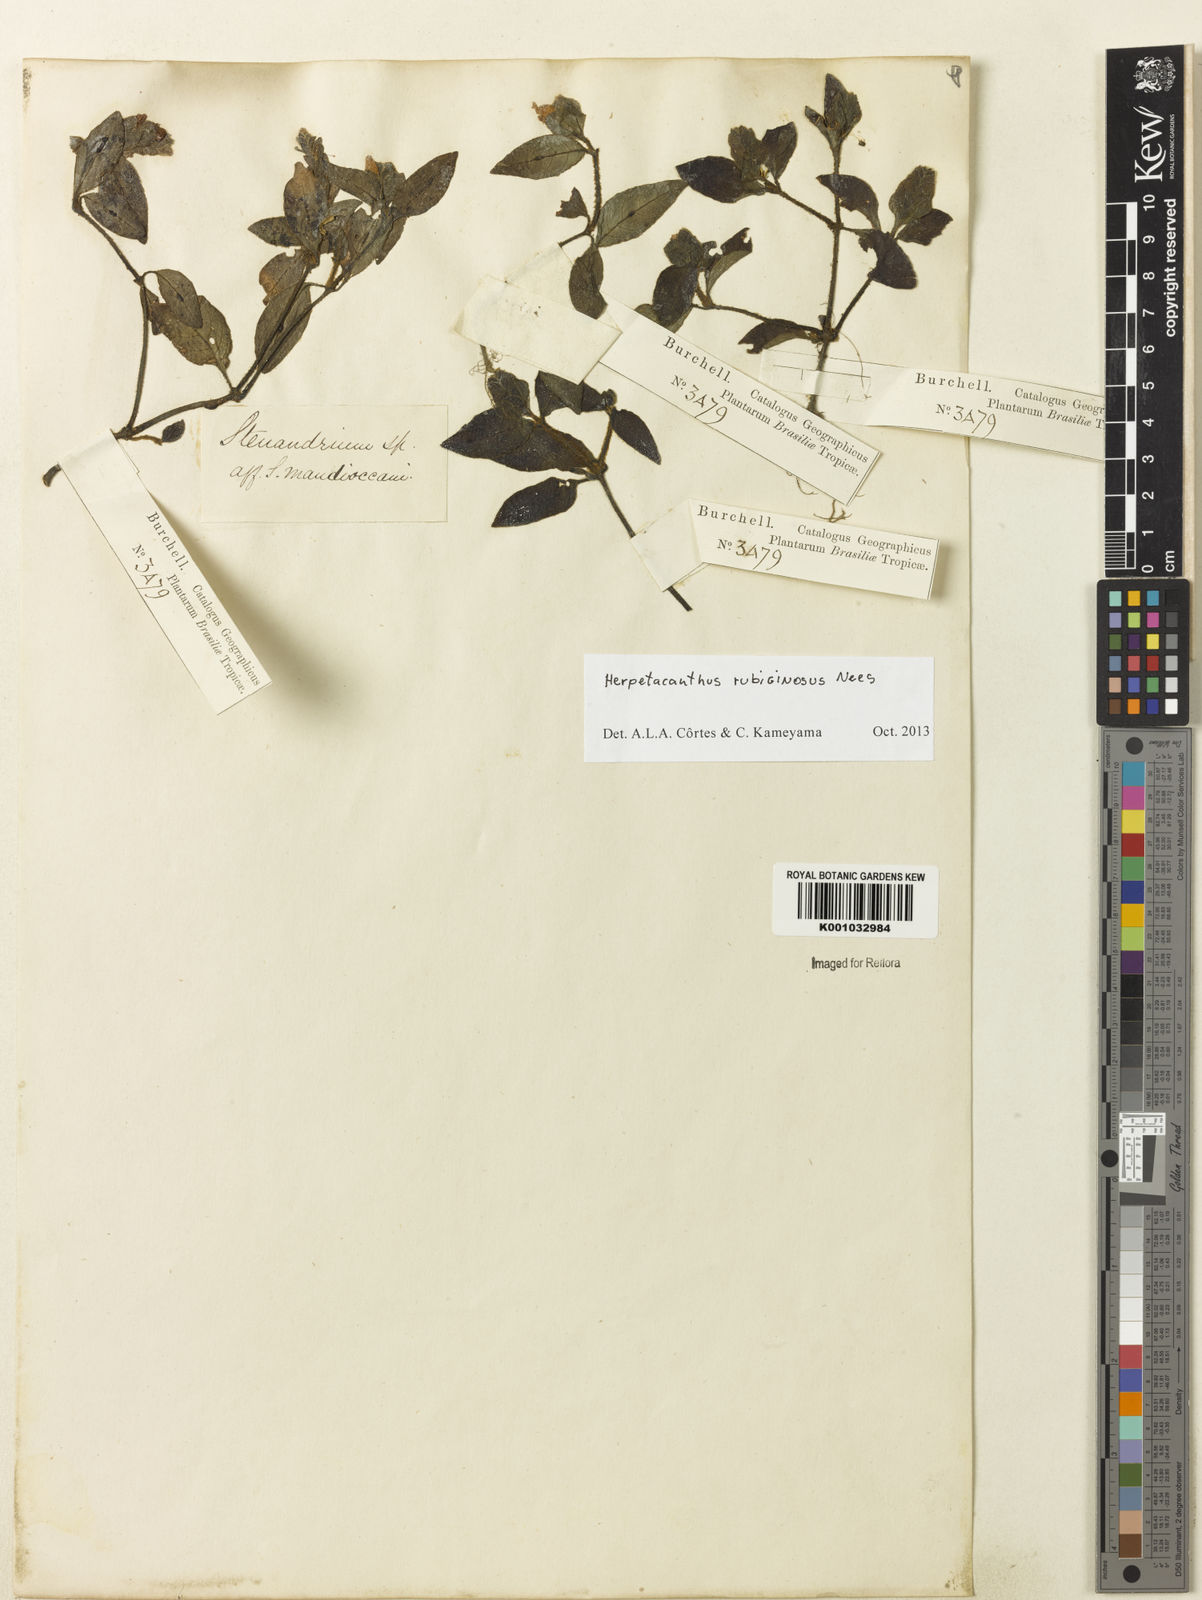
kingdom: Plantae
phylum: Tracheophyta
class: Magnoliopsida
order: Lamiales
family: Acanthaceae
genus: Herpetacanthus
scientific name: Herpetacanthus rubiginosus
